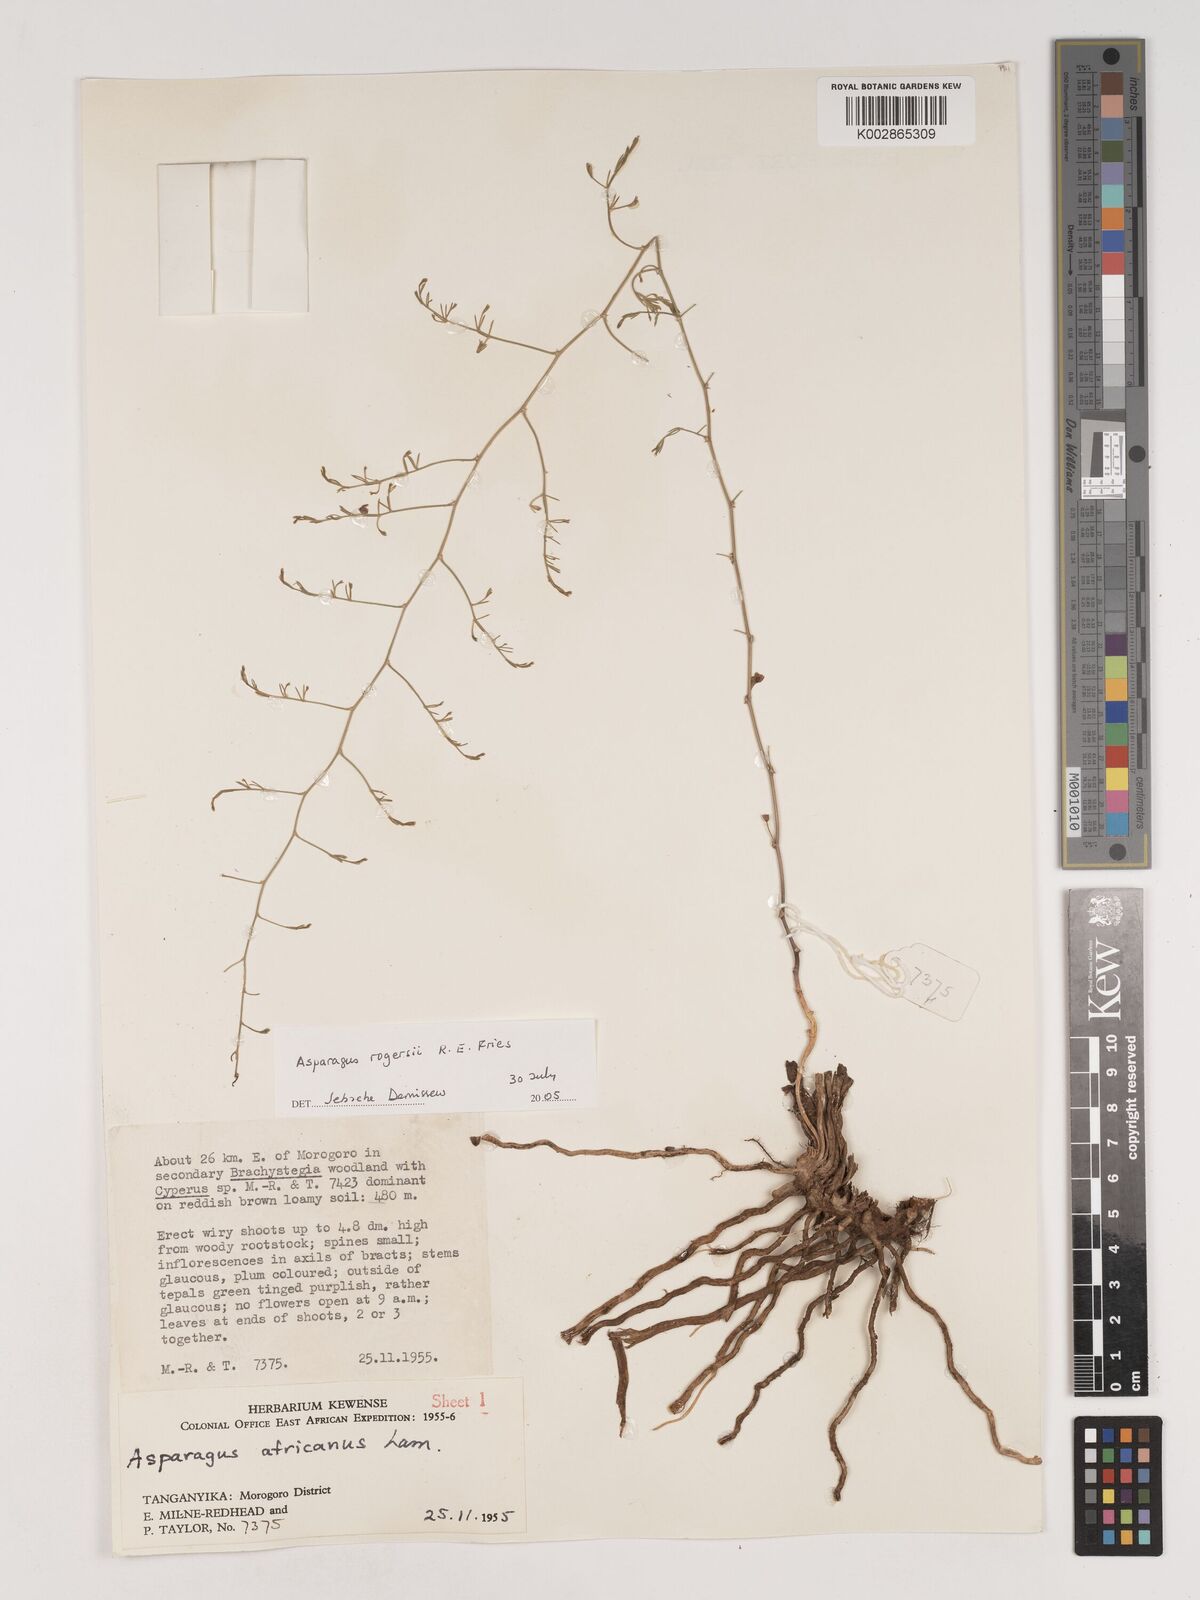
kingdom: Plantae
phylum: Tracheophyta
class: Liliopsida
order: Asparagales
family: Asparagaceae
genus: Asparagus
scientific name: Asparagus rogersii
